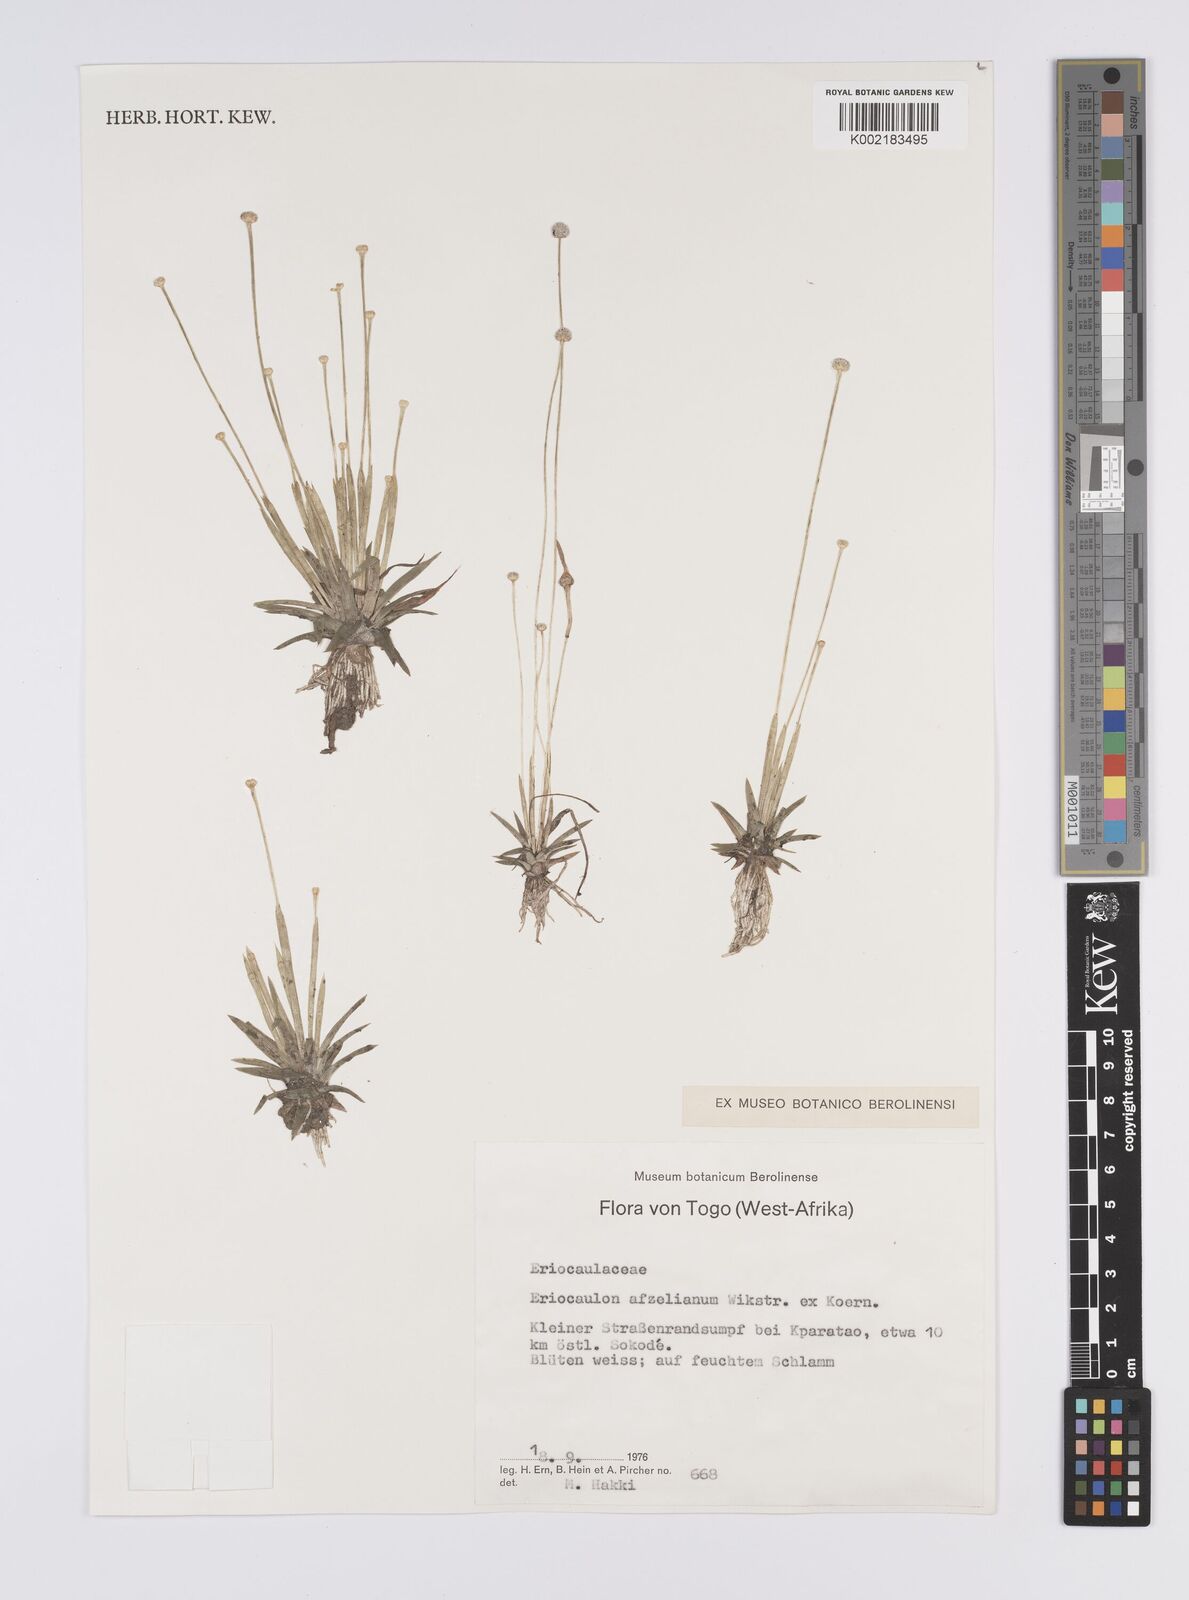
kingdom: Plantae
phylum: Tracheophyta
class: Liliopsida
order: Poales
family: Eriocaulaceae
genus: Eriocaulon
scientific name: Eriocaulon afzelianum
